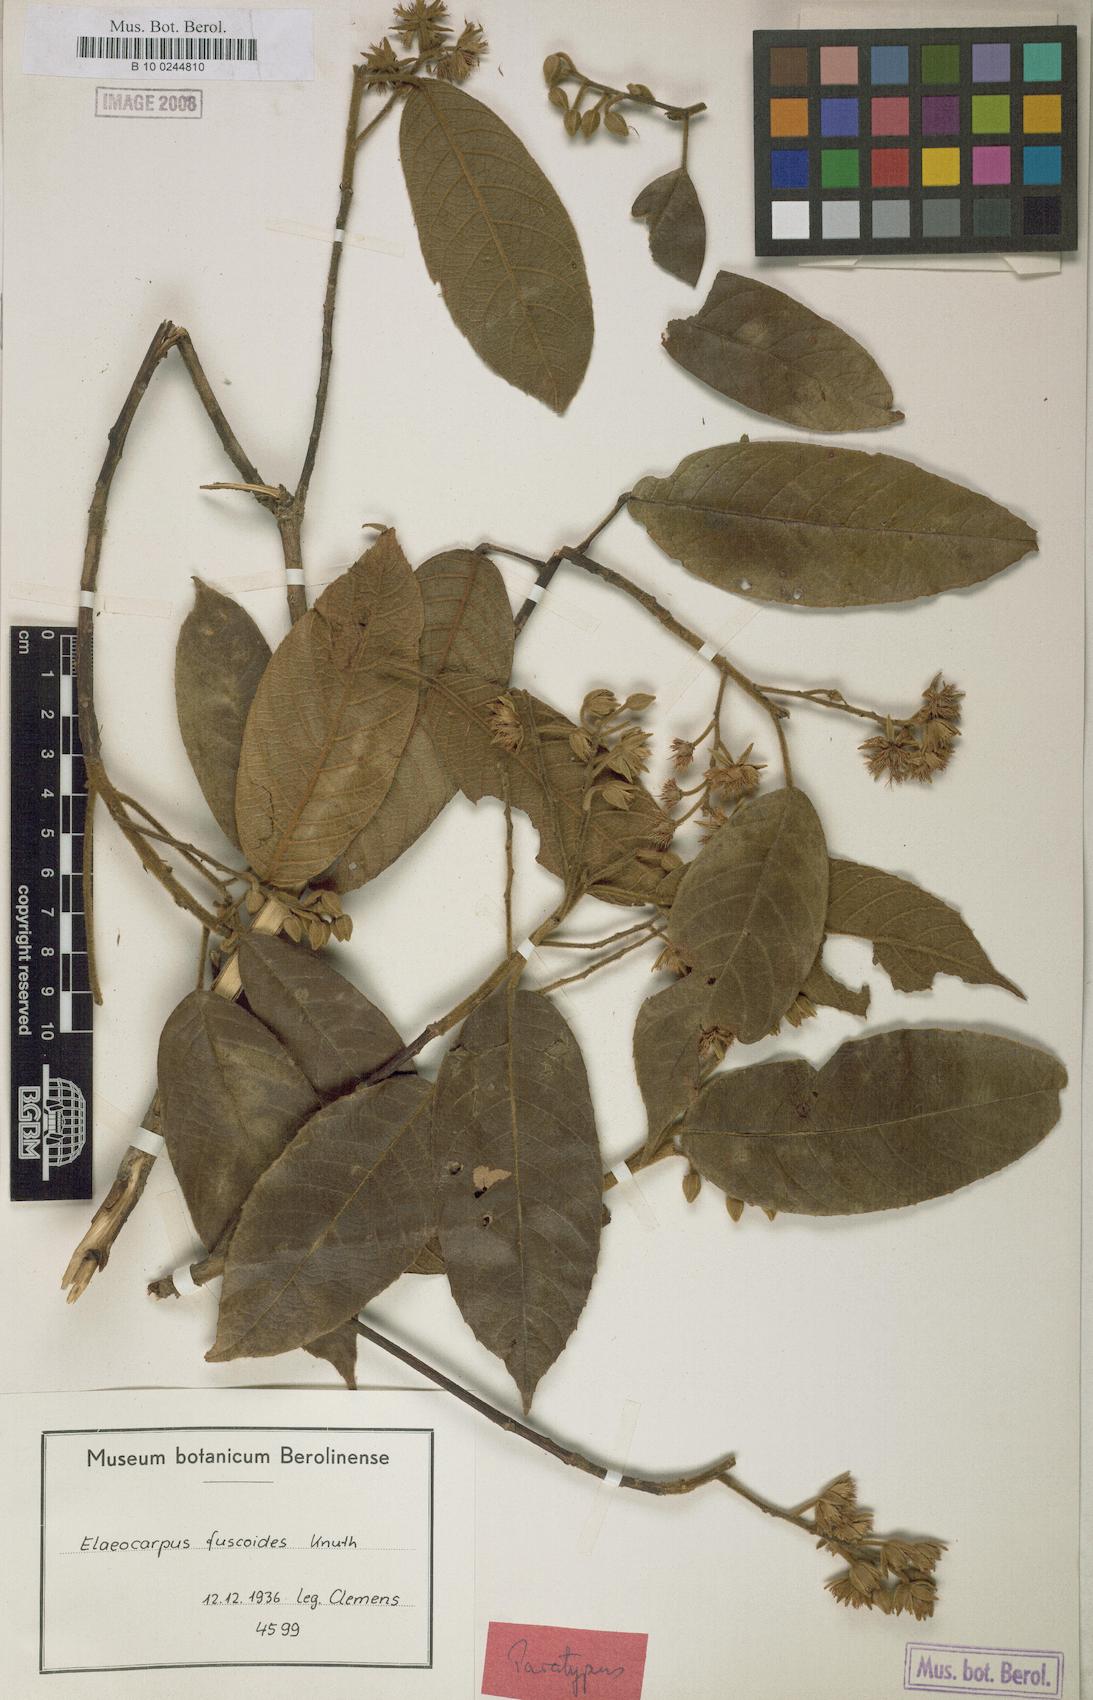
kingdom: Plantae
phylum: Tracheophyta
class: Magnoliopsida
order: Oxalidales
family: Elaeocarpaceae
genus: Elaeocarpus
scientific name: Elaeocarpus fuscoides
